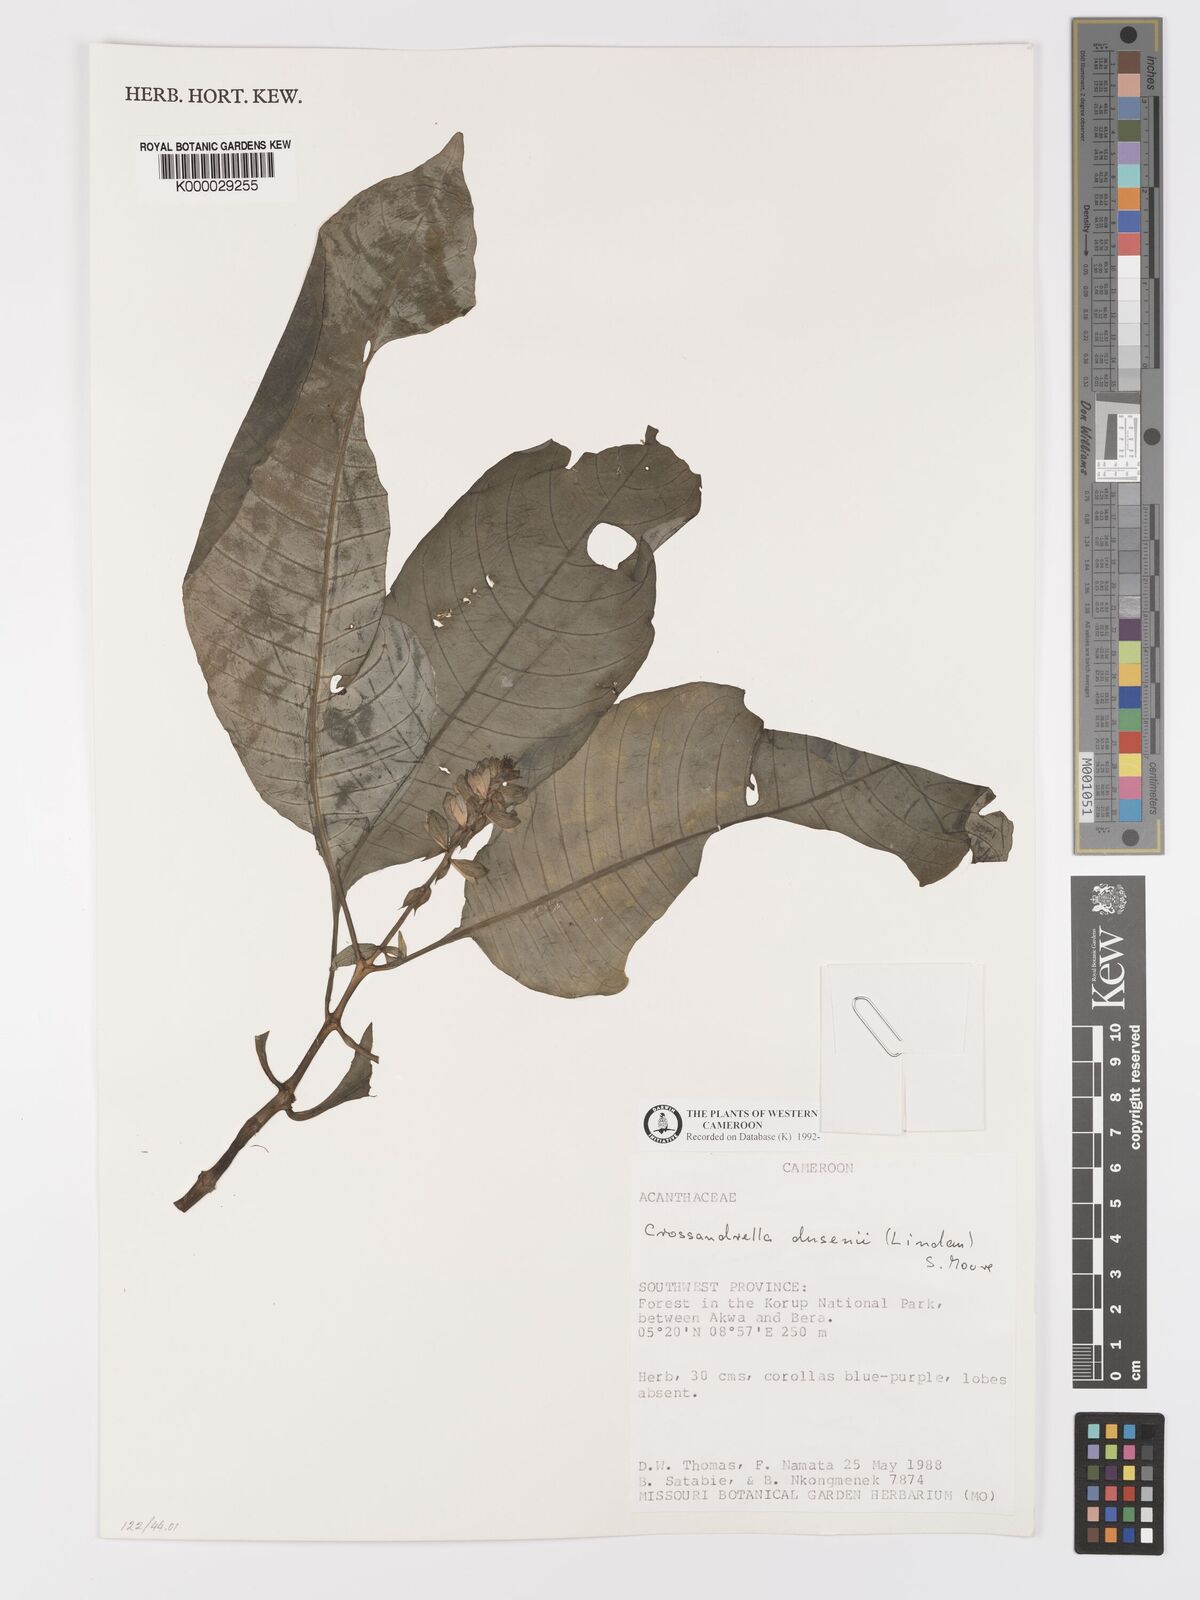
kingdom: Plantae
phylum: Tracheophyta
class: Magnoliopsida
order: Lamiales
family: Acanthaceae
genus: Crossandrella
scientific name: Crossandrella dusenii
